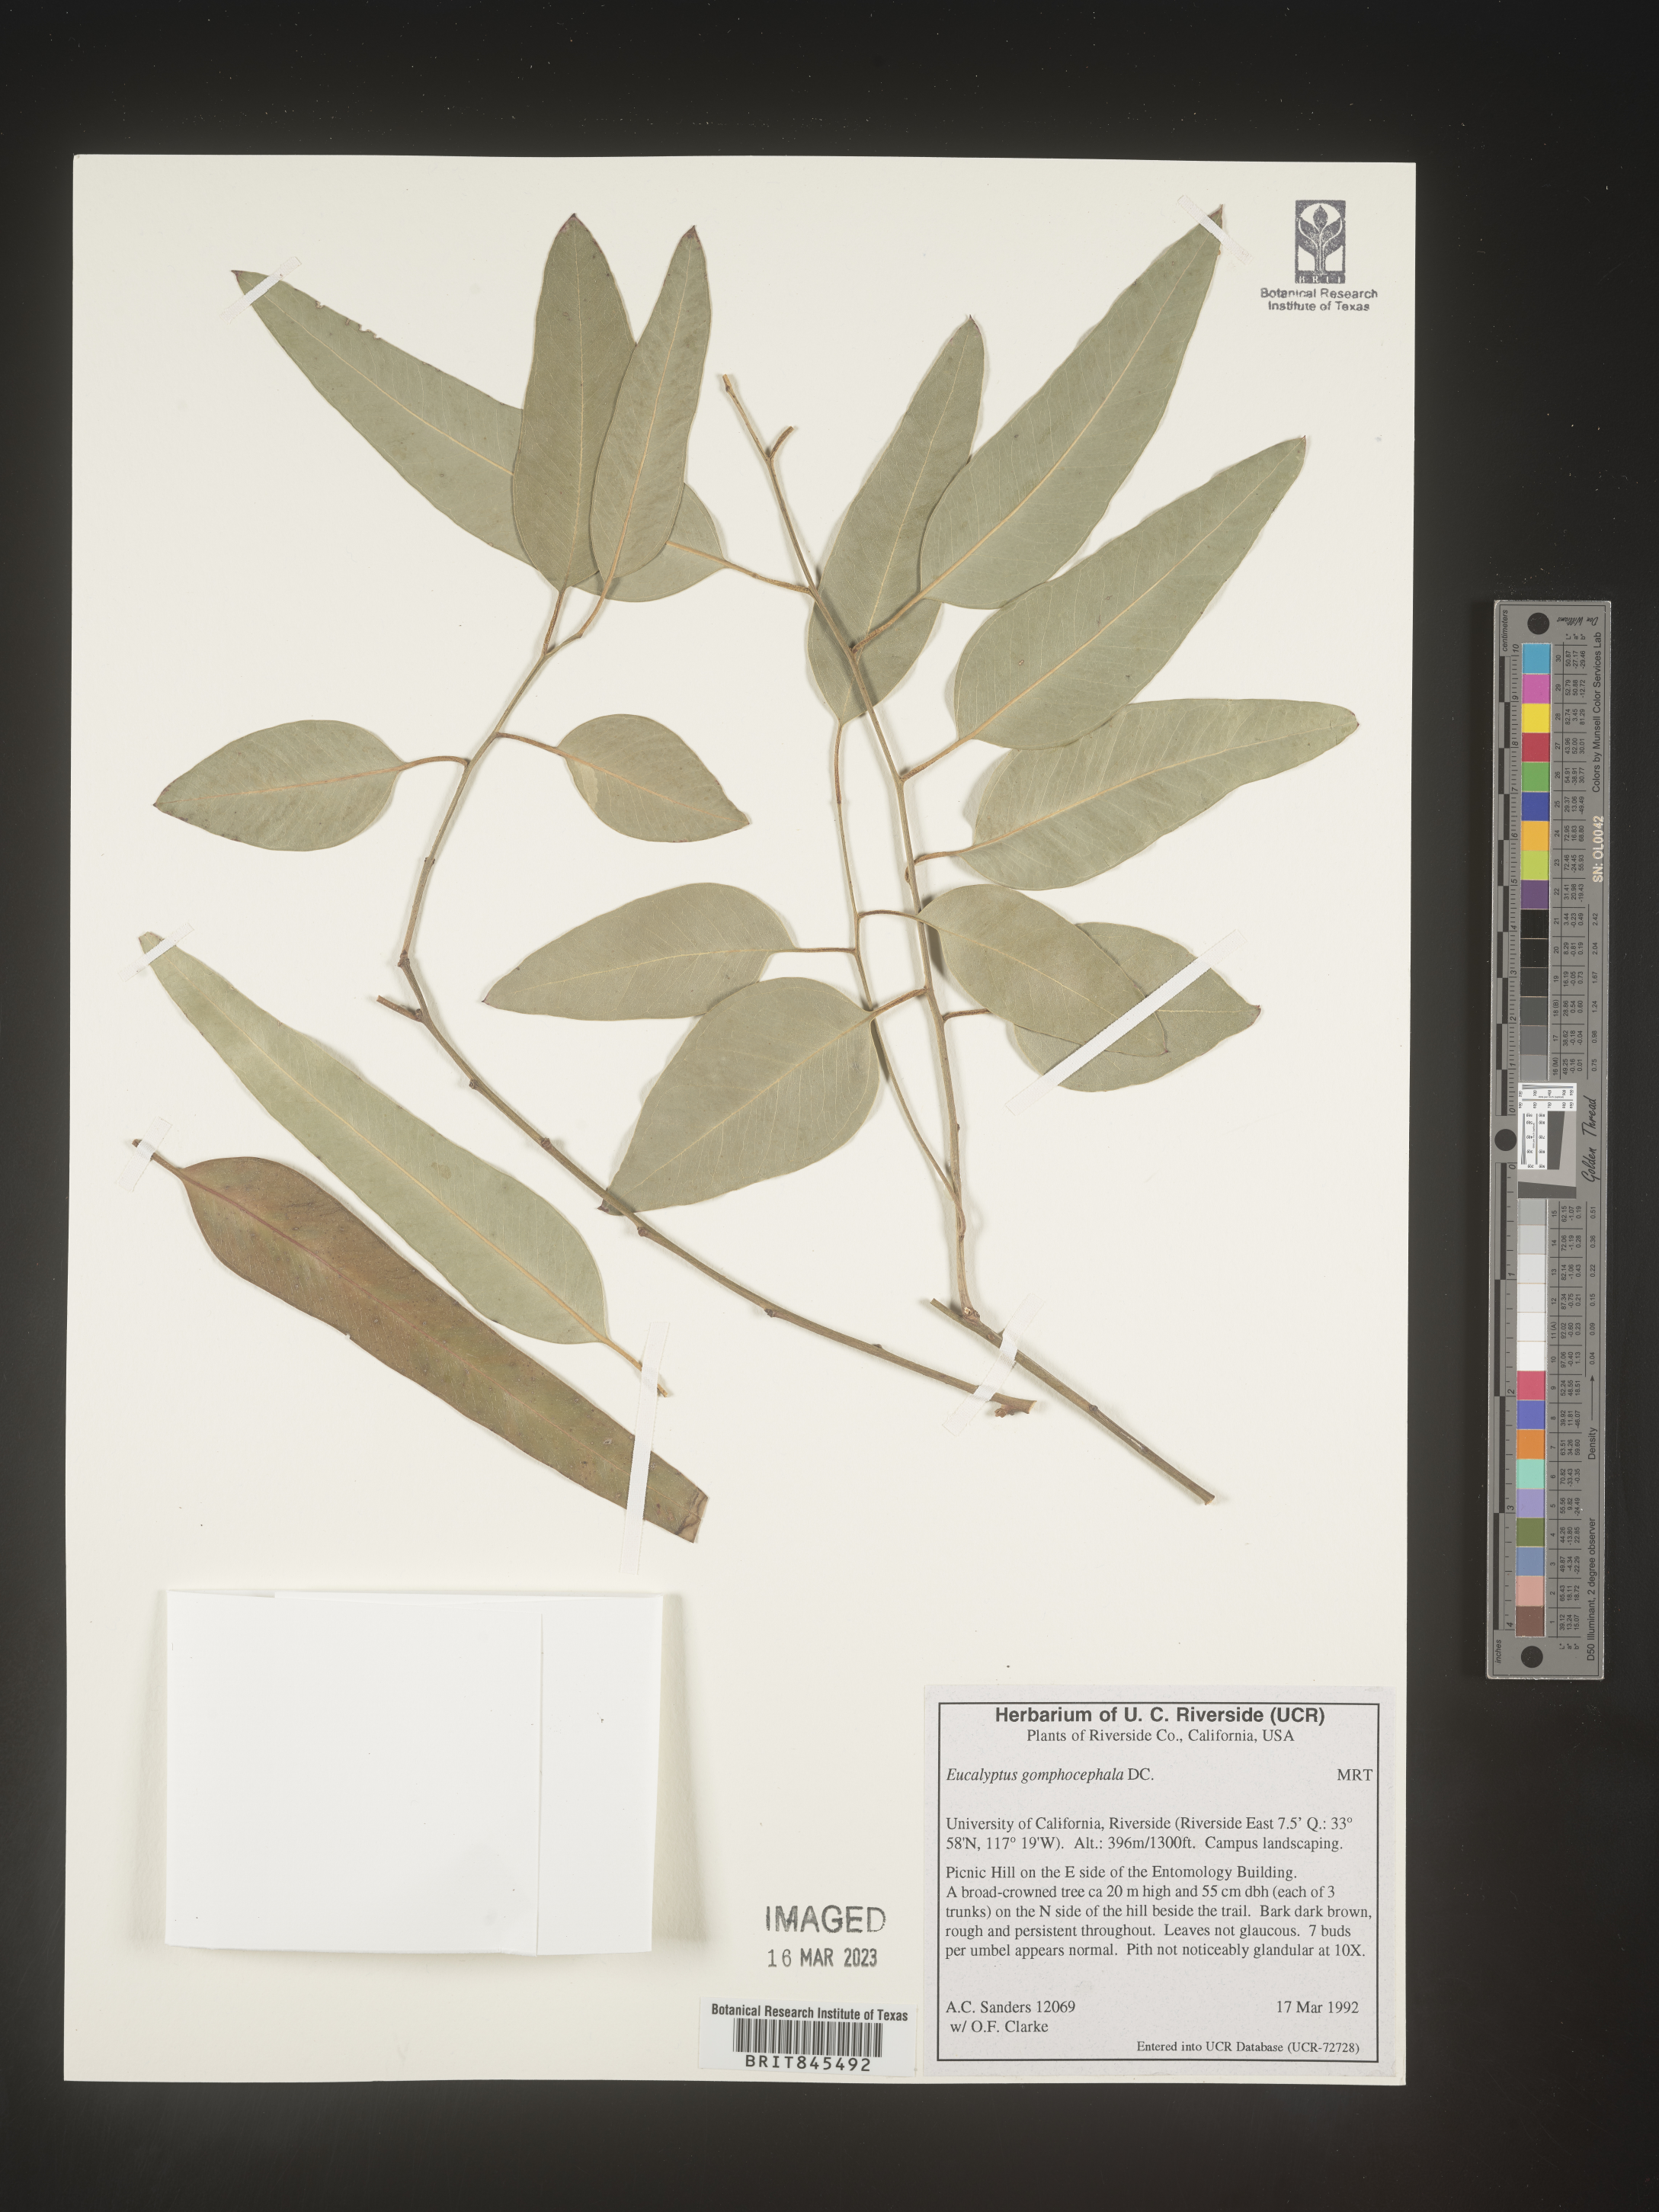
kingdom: Plantae
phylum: Tracheophyta
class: Magnoliopsida
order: Myrtales
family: Myrtaceae
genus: Eucalyptus
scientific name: Eucalyptus
